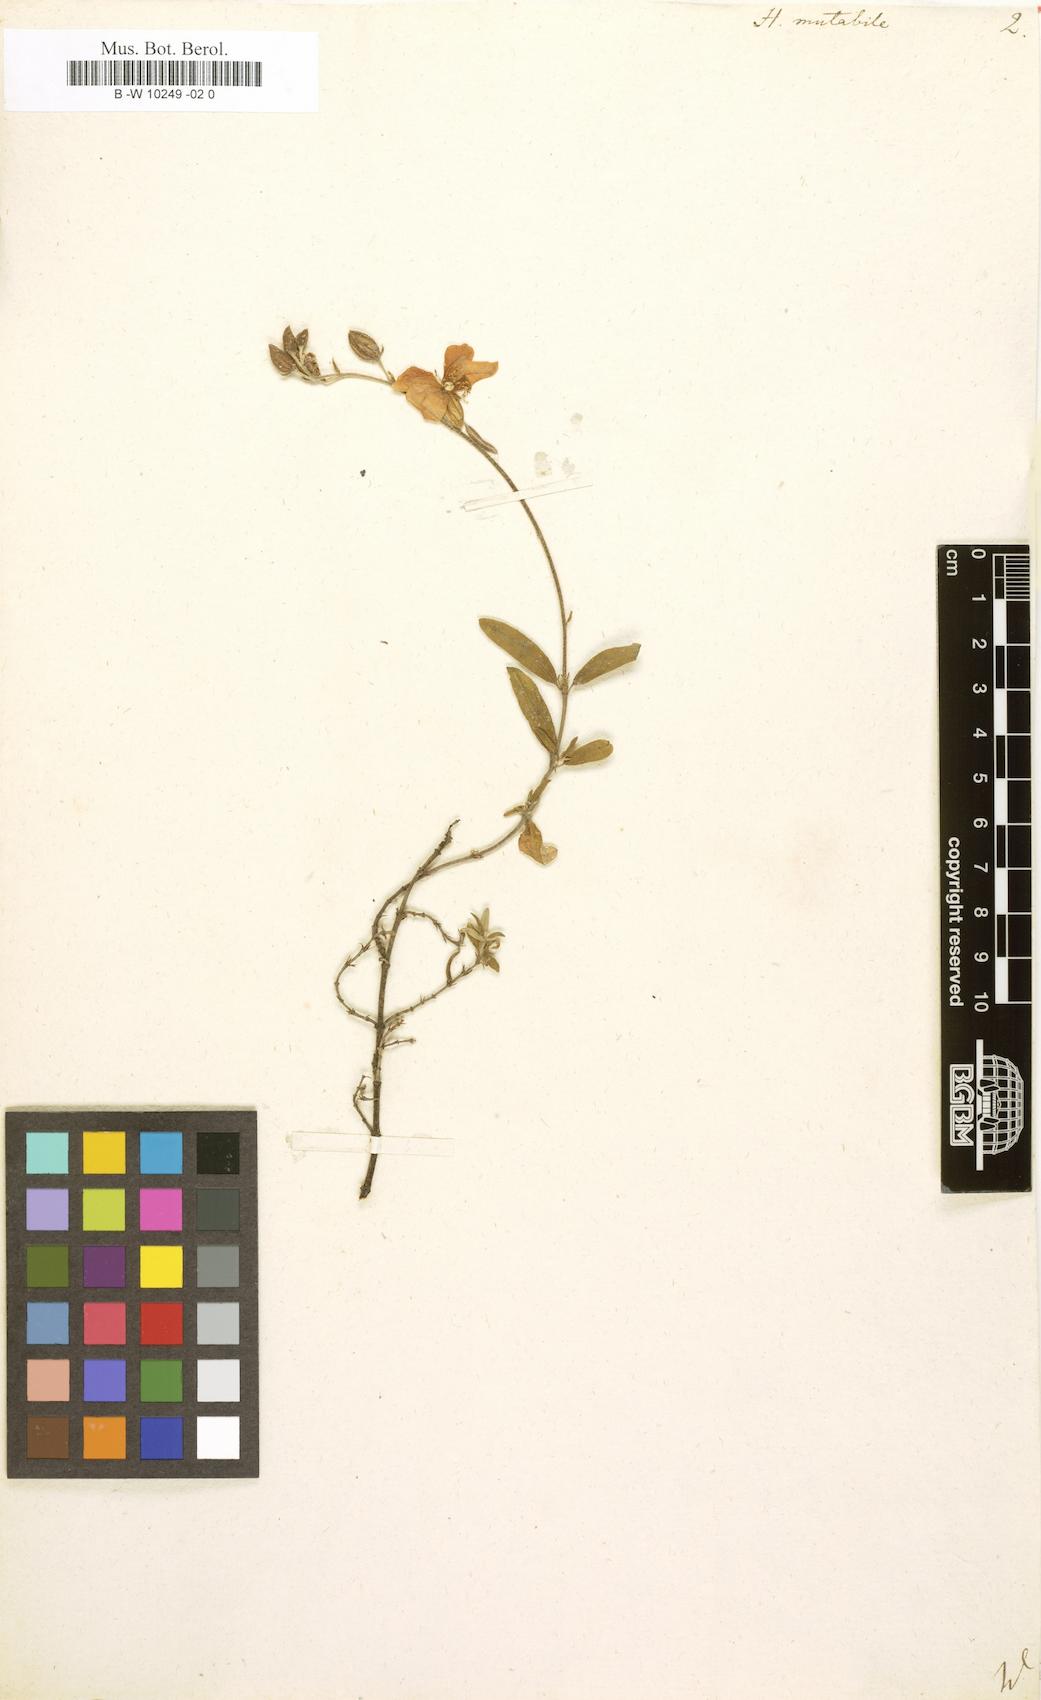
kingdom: Plantae
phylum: Tracheophyta
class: Magnoliopsida
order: Malvales
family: Cistaceae
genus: Helianthemum
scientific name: Helianthemum nummularium
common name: Common rock-rose
